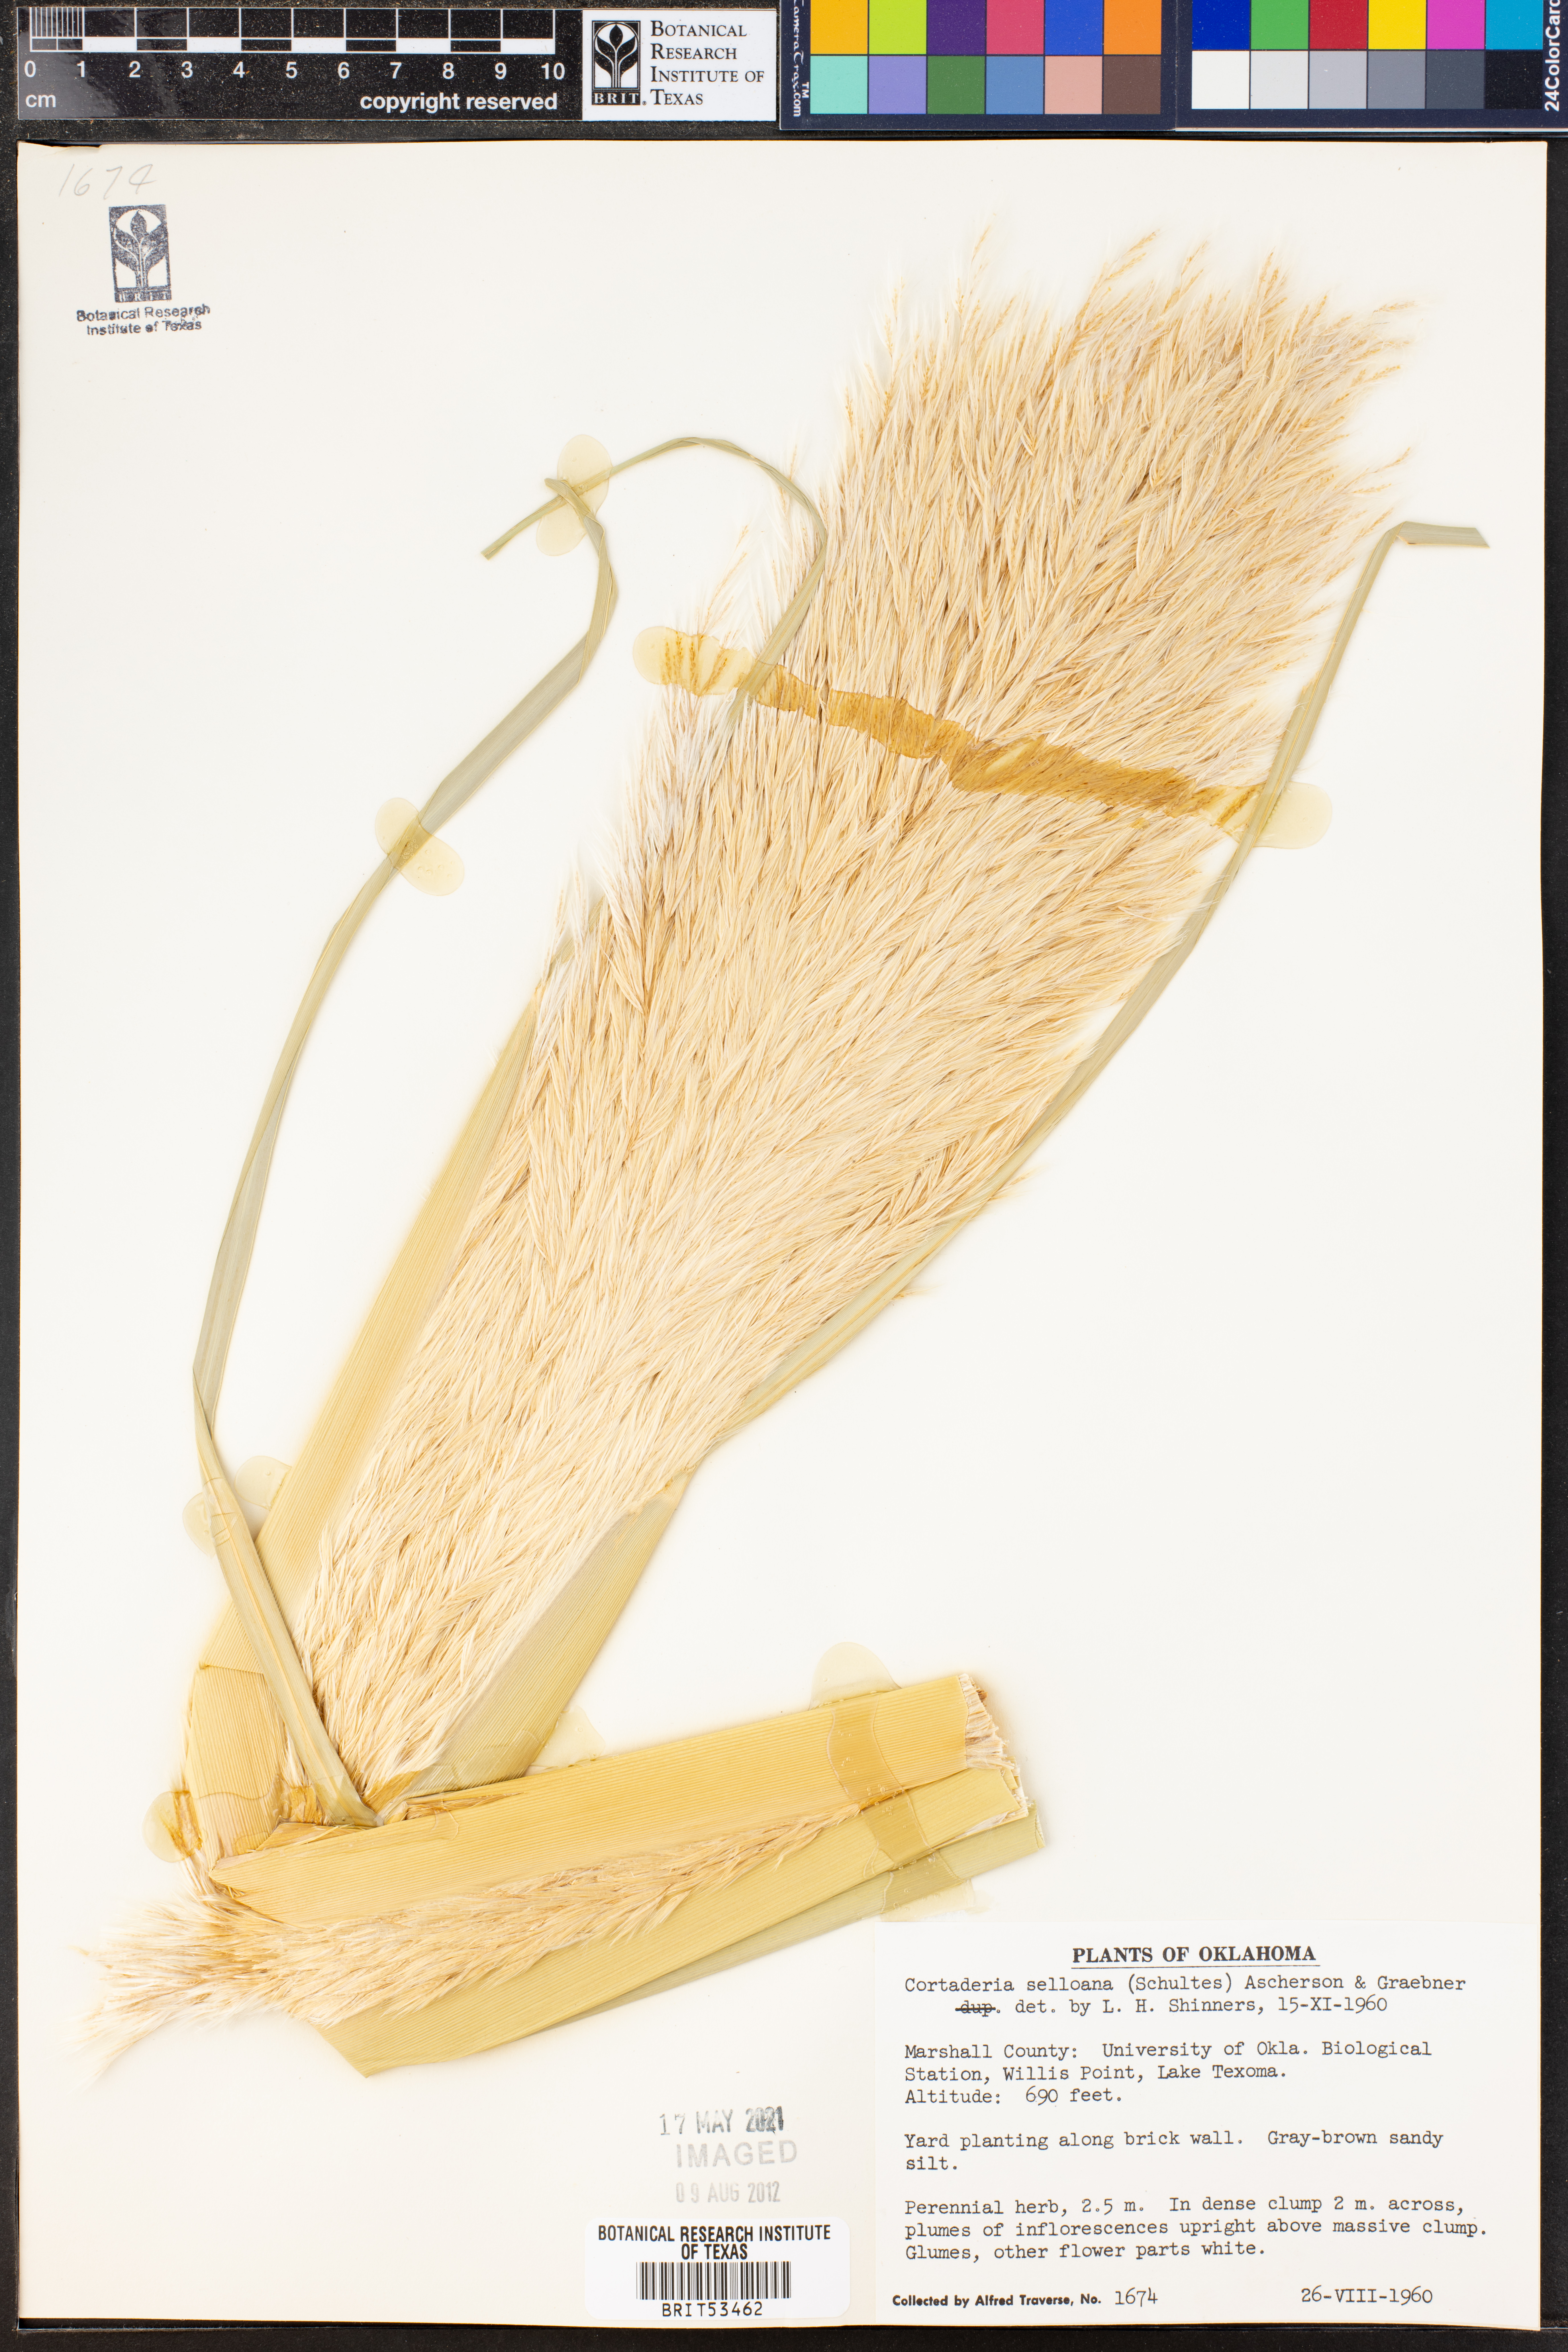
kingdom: Plantae
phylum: Tracheophyta
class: Liliopsida
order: Poales
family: Poaceae
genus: Cortaderia
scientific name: Cortaderia selloana
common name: Uruguayan pampas grass
